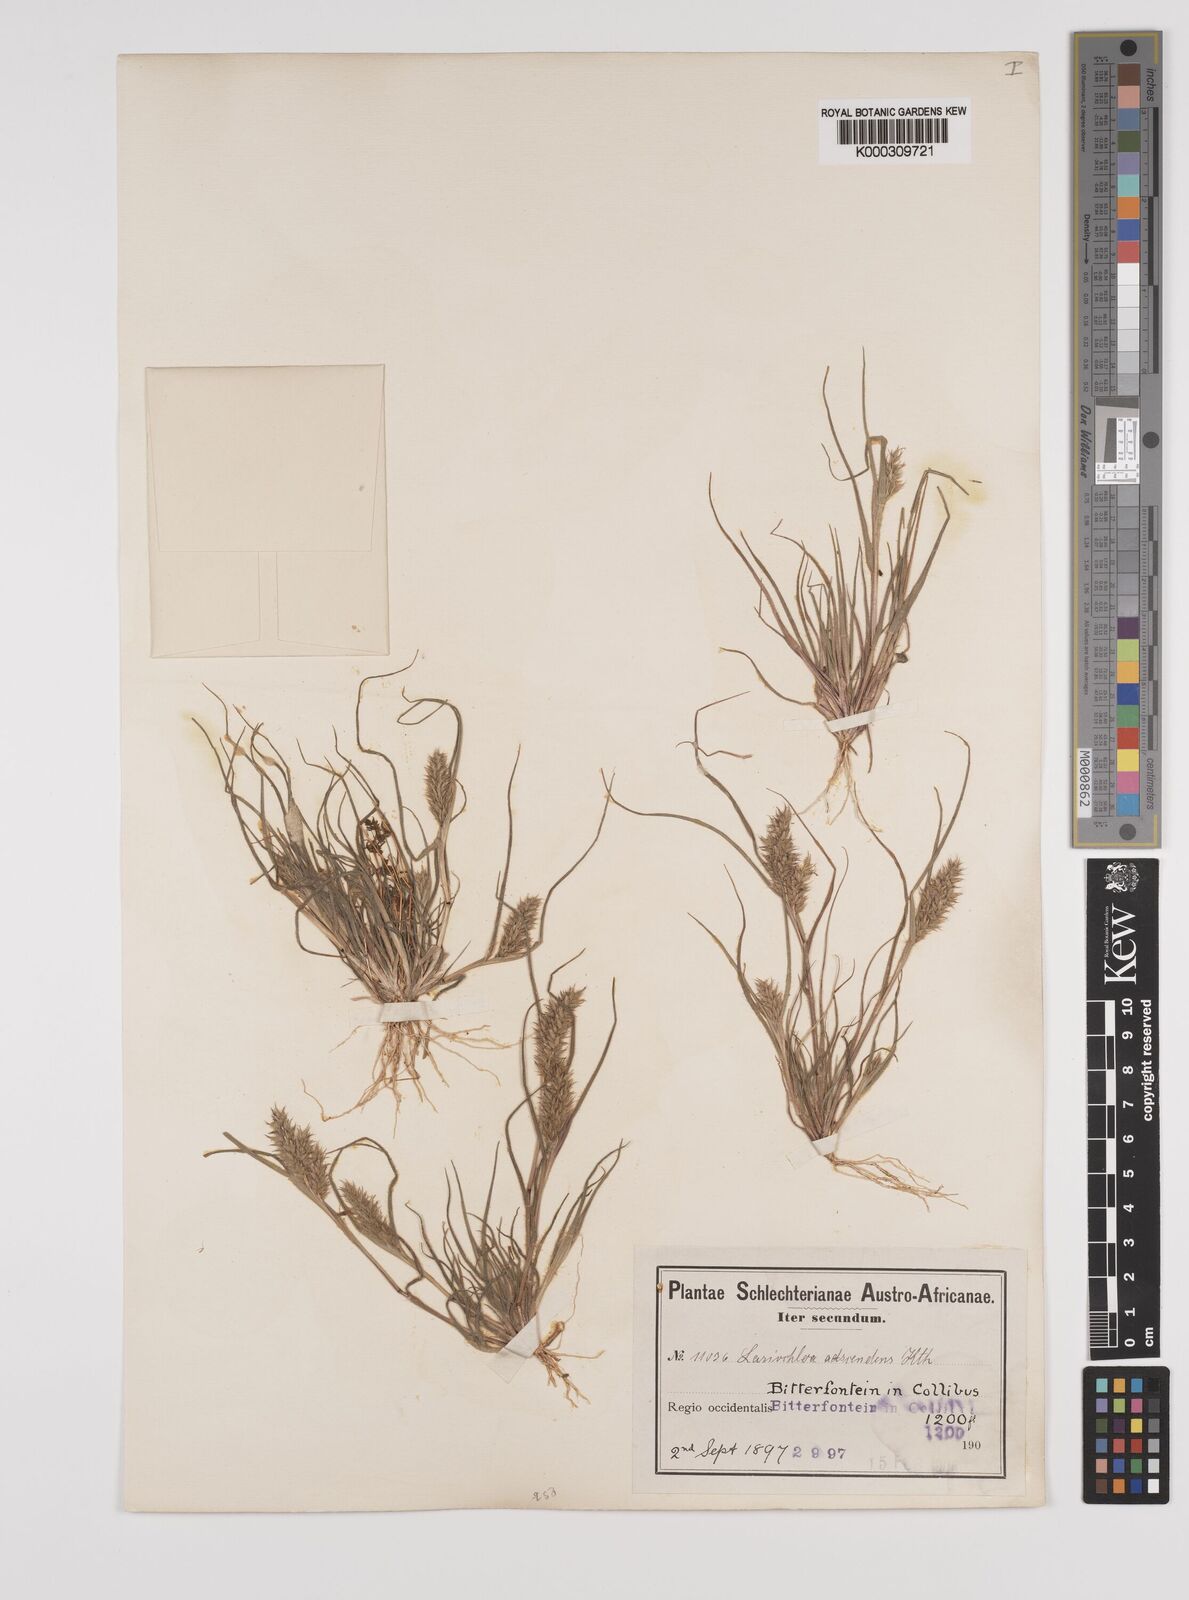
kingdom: Plantae
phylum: Tracheophyta
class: Liliopsida
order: Poales
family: Poaceae
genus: Tribolium
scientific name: Tribolium echinatum
